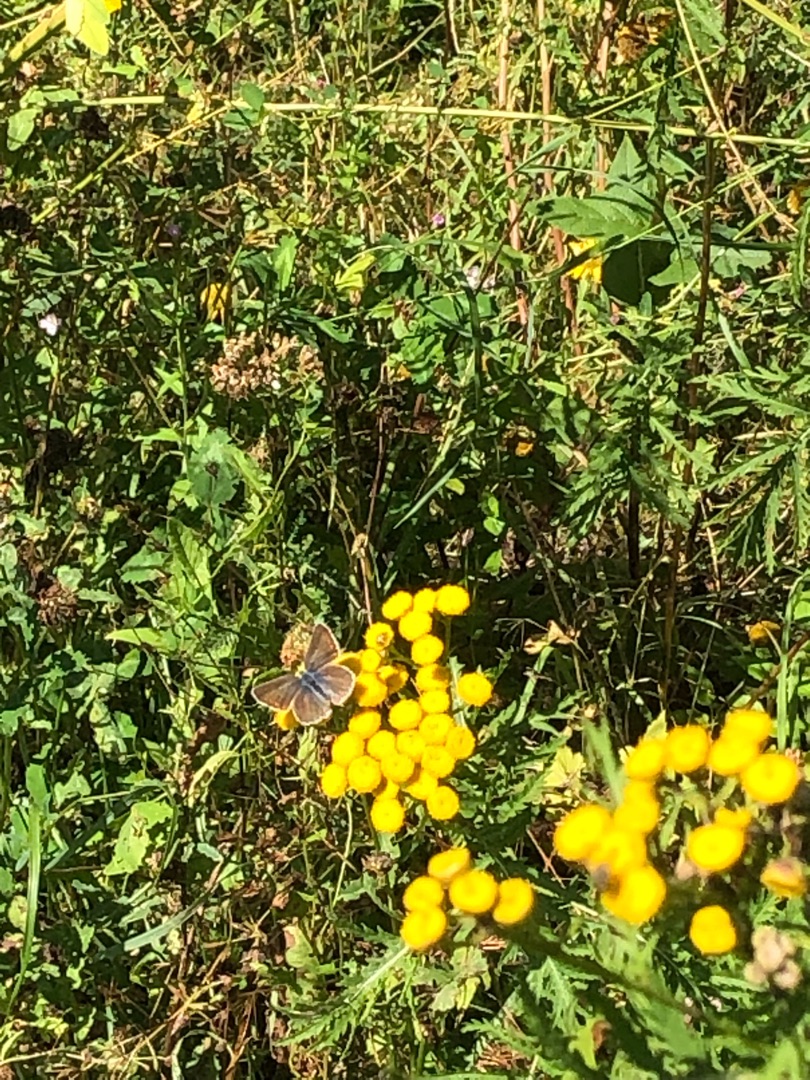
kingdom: Animalia
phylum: Arthropoda
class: Insecta
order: Lepidoptera
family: Lycaenidae
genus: Polyommatus
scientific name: Polyommatus icarus
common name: Almindelig blåfugl
